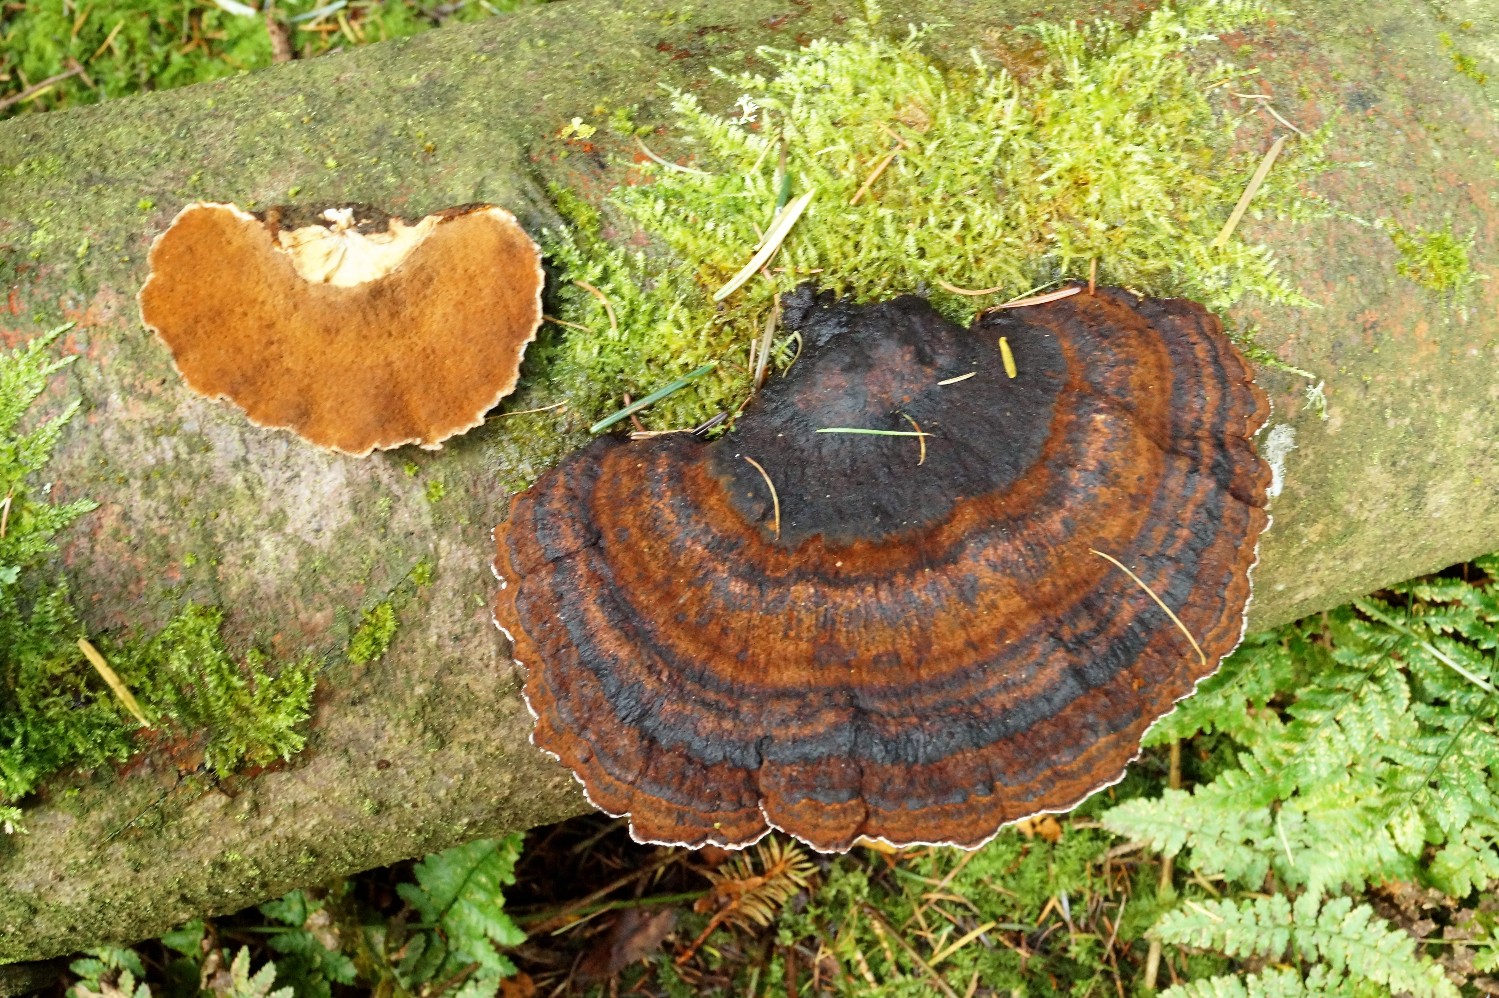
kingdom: Fungi
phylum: Basidiomycota
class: Agaricomycetes
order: Polyporales
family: Ischnodermataceae
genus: Ischnoderma
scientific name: Ischnoderma benzoinum
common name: gran-tjæreporesvamp
